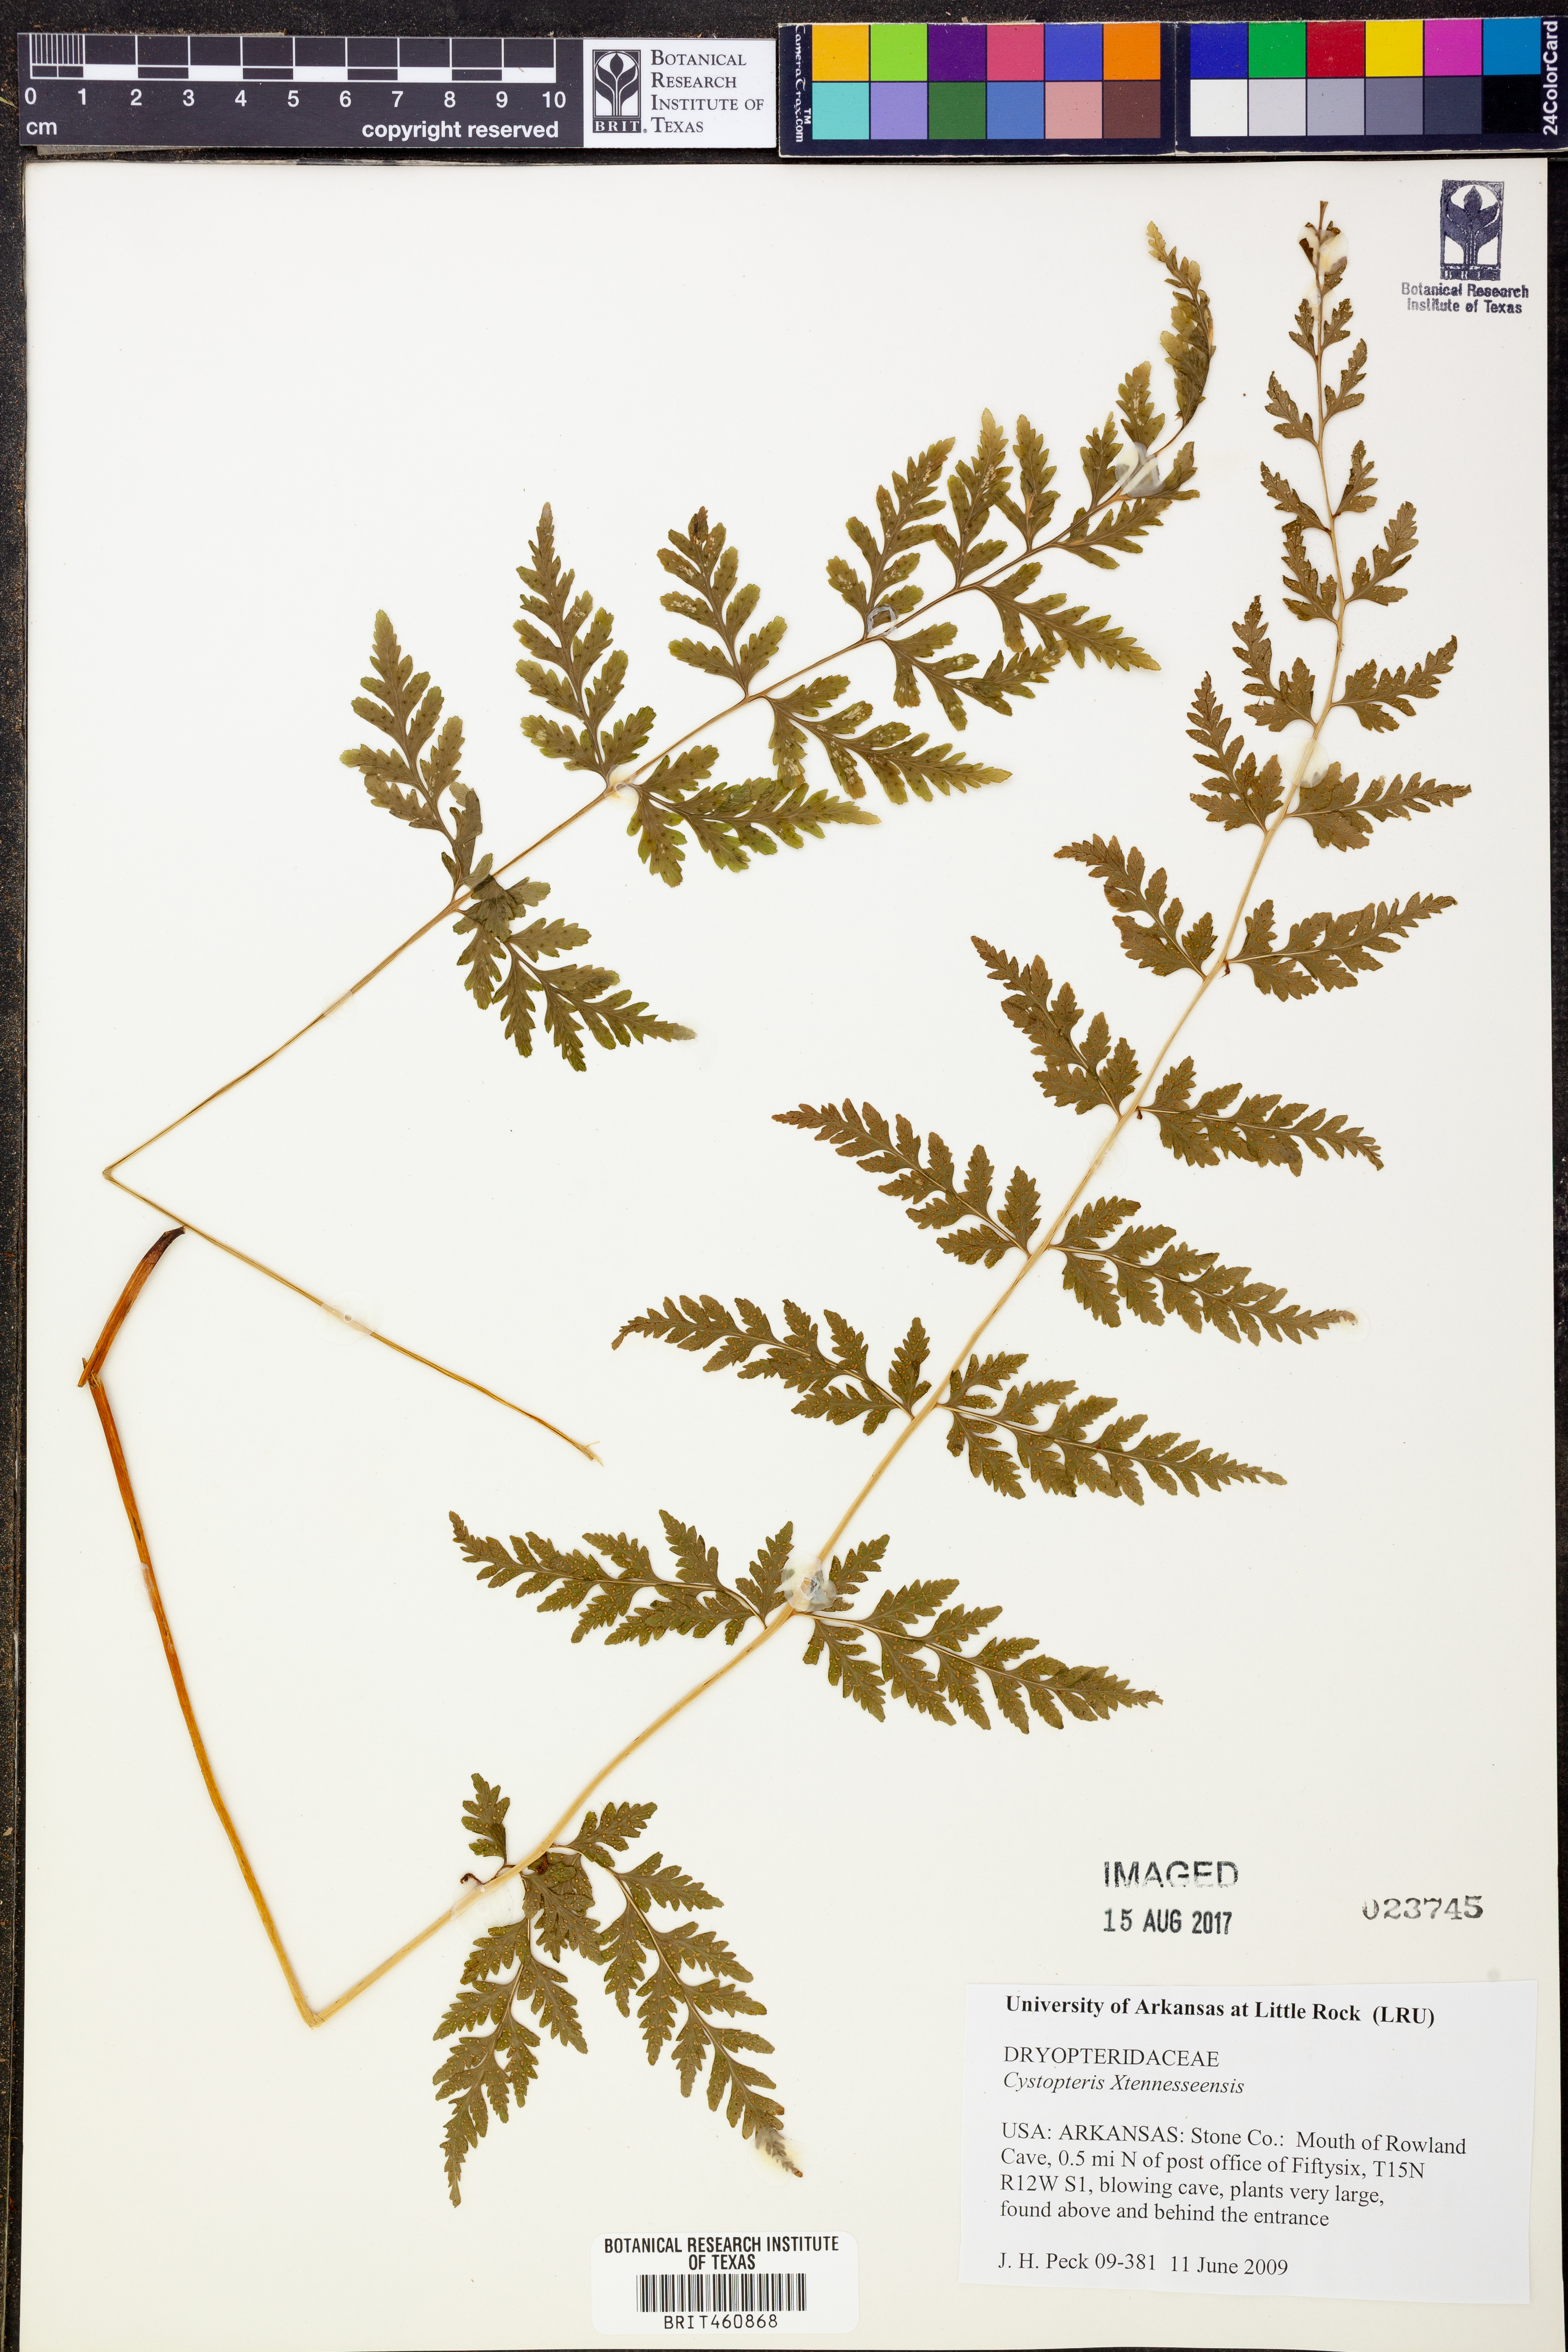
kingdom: Plantae
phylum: Tracheophyta
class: Polypodiopsida
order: Polypodiales
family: Cystopteridaceae
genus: Cystopteris
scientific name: Cystopteris tennesseensis
